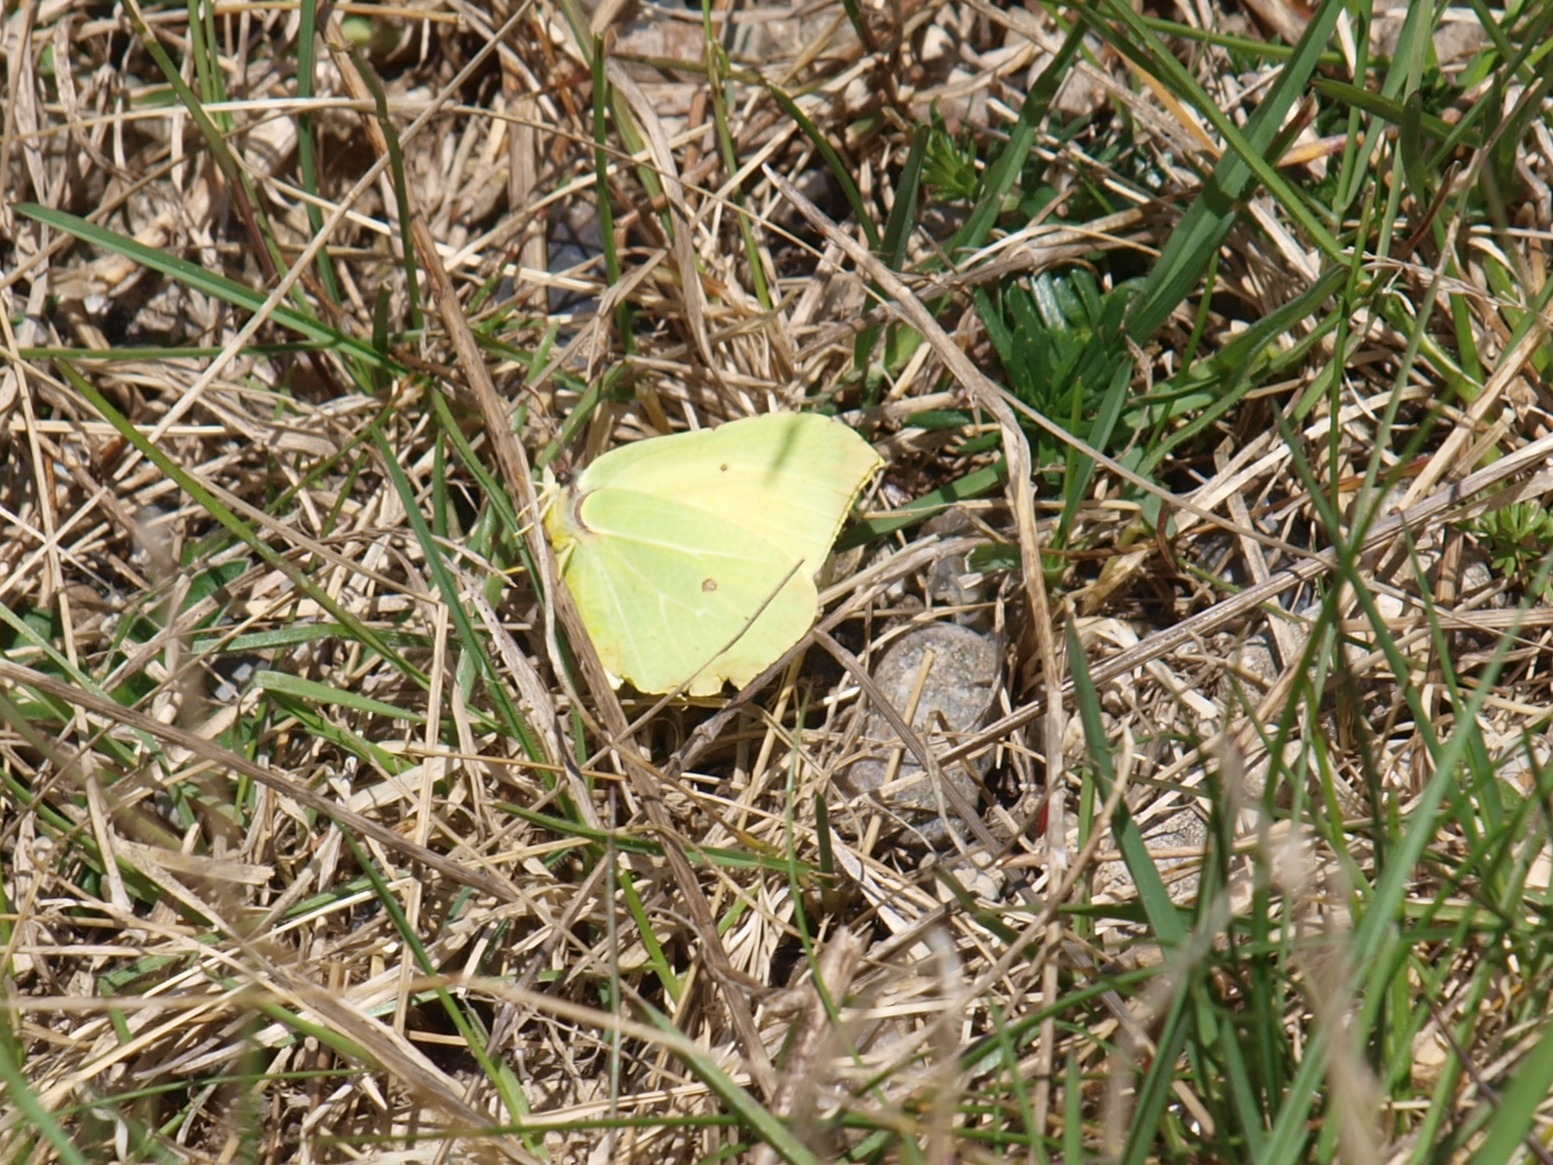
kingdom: Animalia
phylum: Arthropoda
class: Insecta
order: Lepidoptera
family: Pieridae
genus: Gonepteryx
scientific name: Gonepteryx rhamni
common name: Citronsommerfugl
